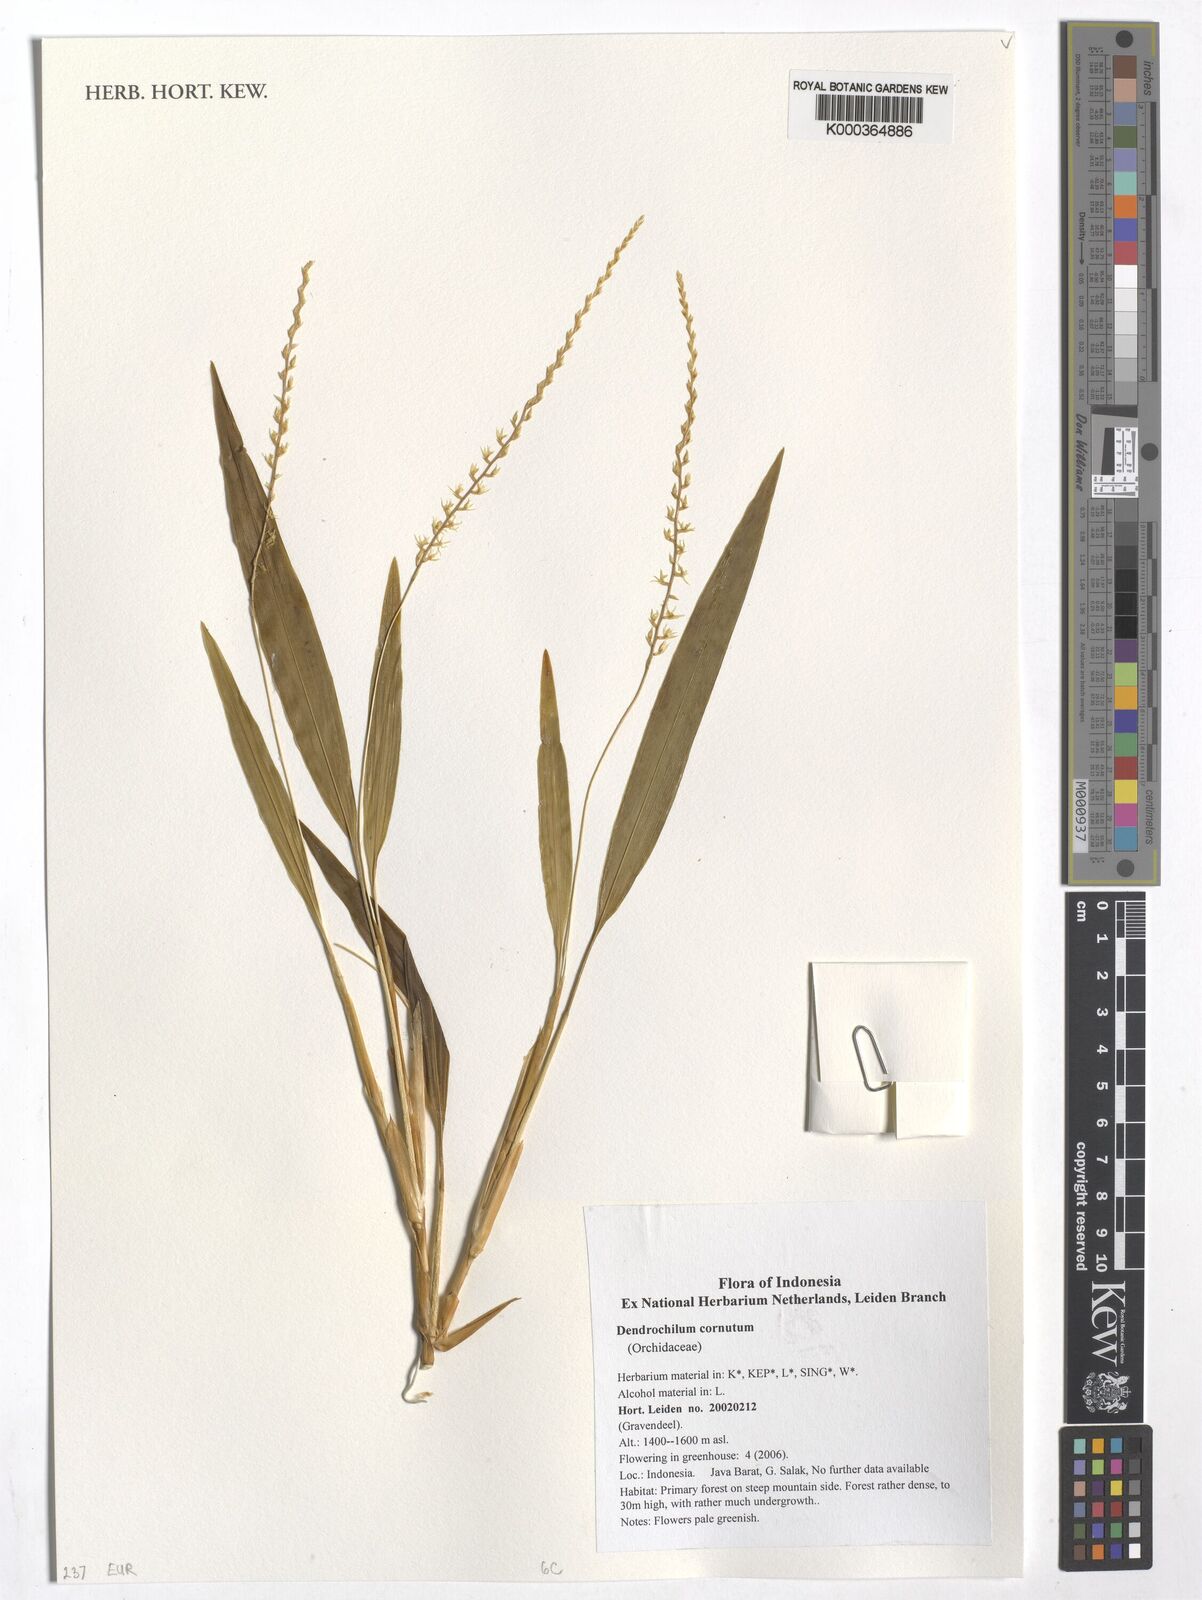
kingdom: Plantae
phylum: Tracheophyta
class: Liliopsida
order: Asparagales
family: Orchidaceae
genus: Coelogyne
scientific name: Coelogyne cornuta
